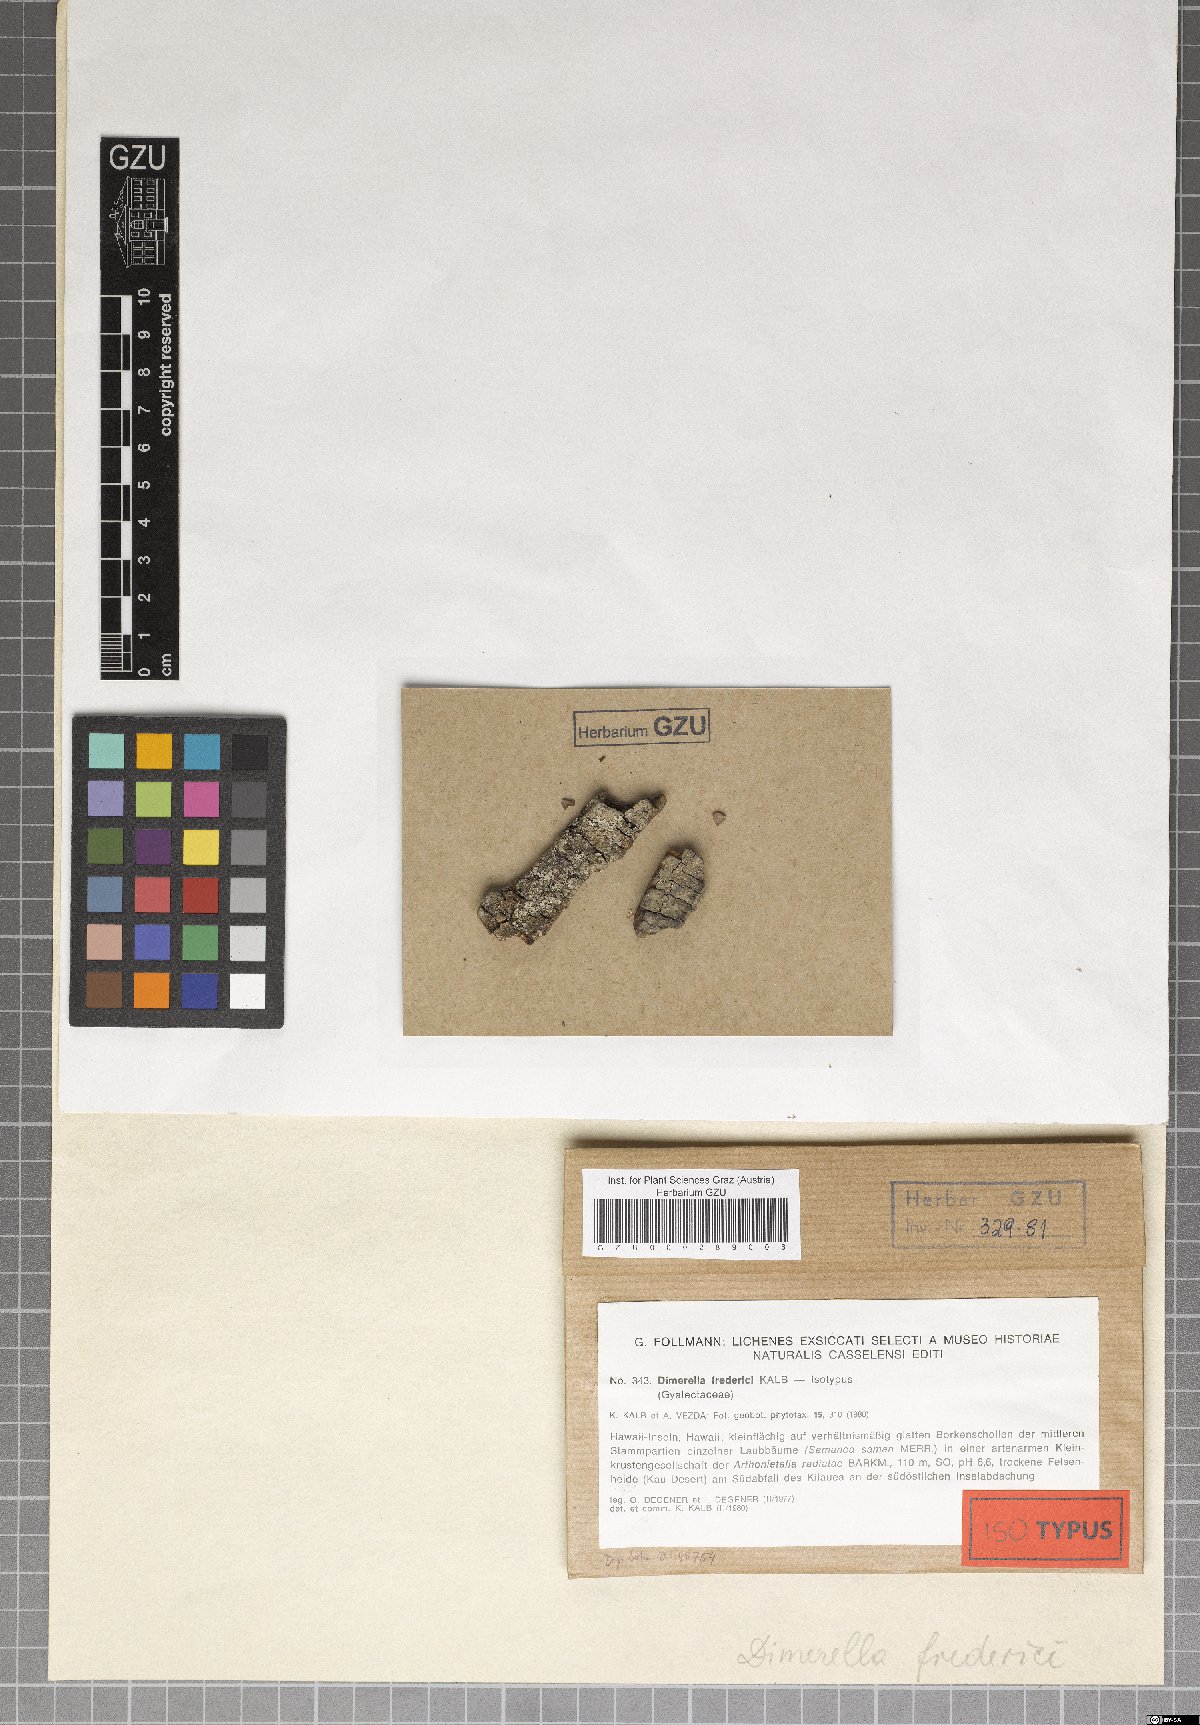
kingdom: Fungi
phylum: Ascomycota
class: Lecanoromycetes
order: Gyalectales
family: Gyalectaceae
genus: Dimerella
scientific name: Dimerella fredrici
